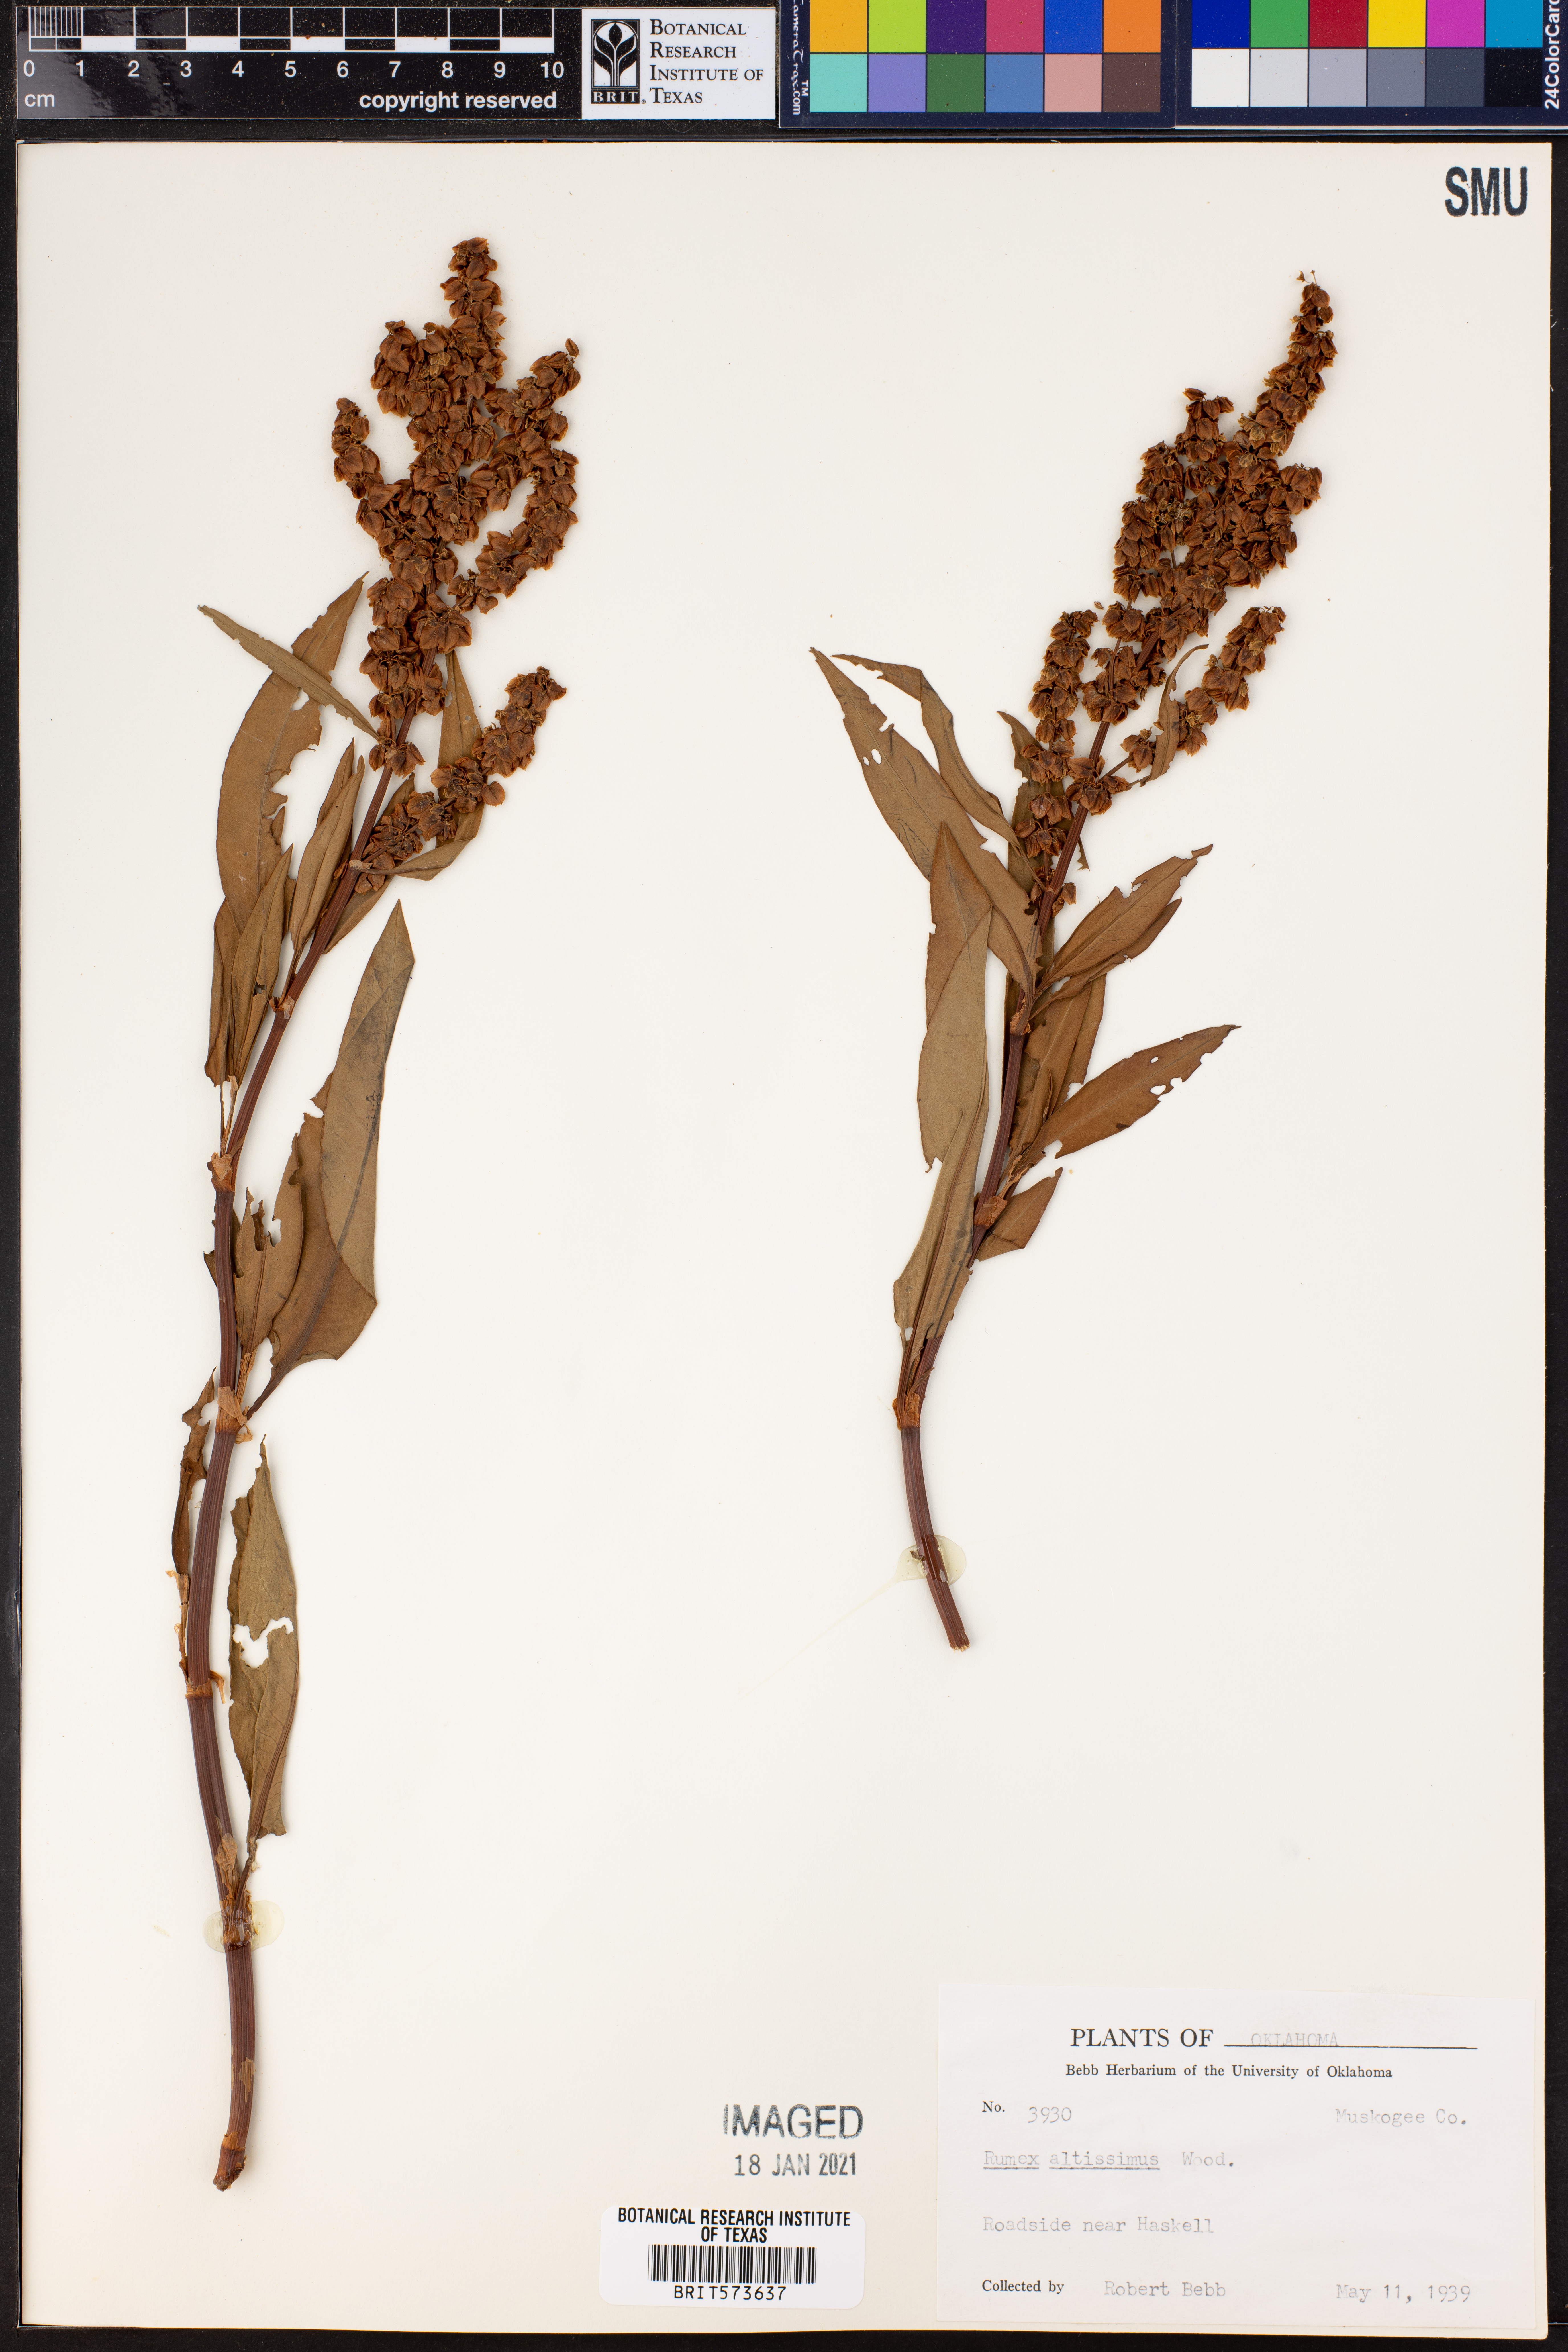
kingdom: Plantae
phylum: Tracheophyta
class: Magnoliopsida
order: Caryophyllales
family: Polygonaceae
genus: Rumex
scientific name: Rumex altissimus
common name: Smooth dock
